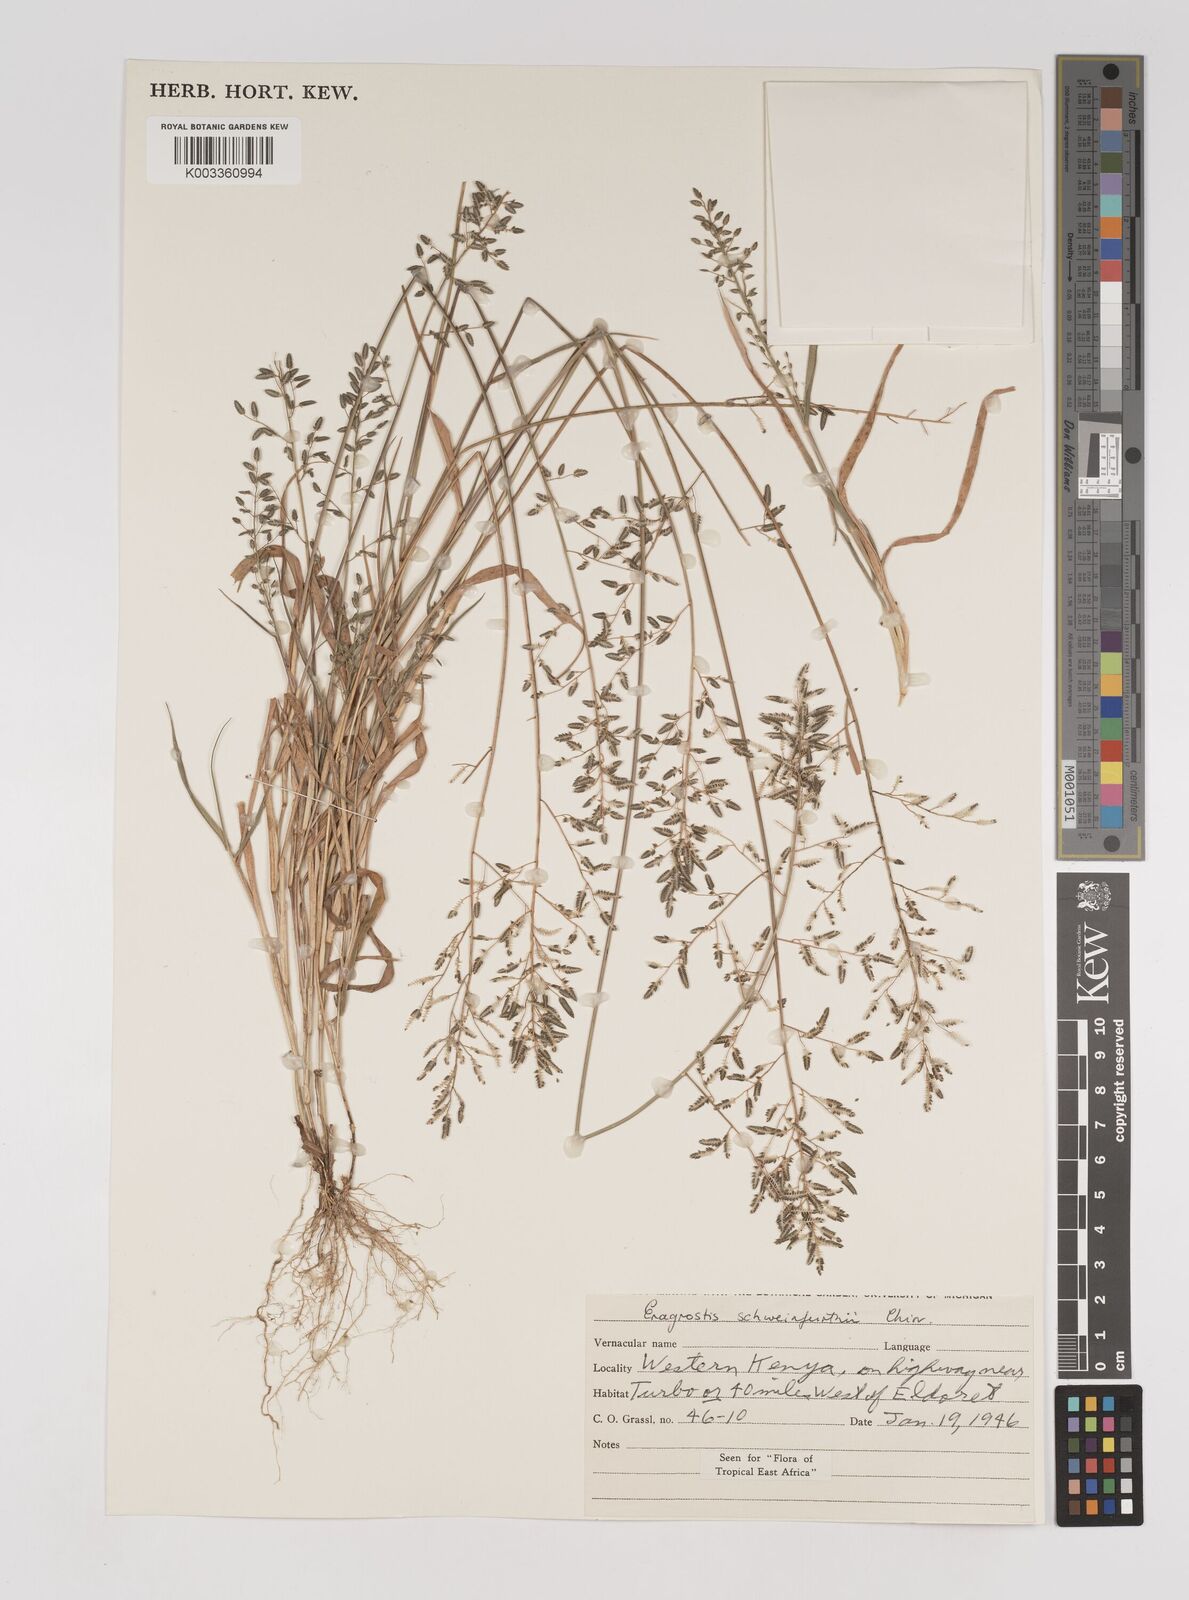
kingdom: Plantae
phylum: Tracheophyta
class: Liliopsida
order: Poales
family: Poaceae
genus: Eragrostis
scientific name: Eragrostis schweinfurthii
